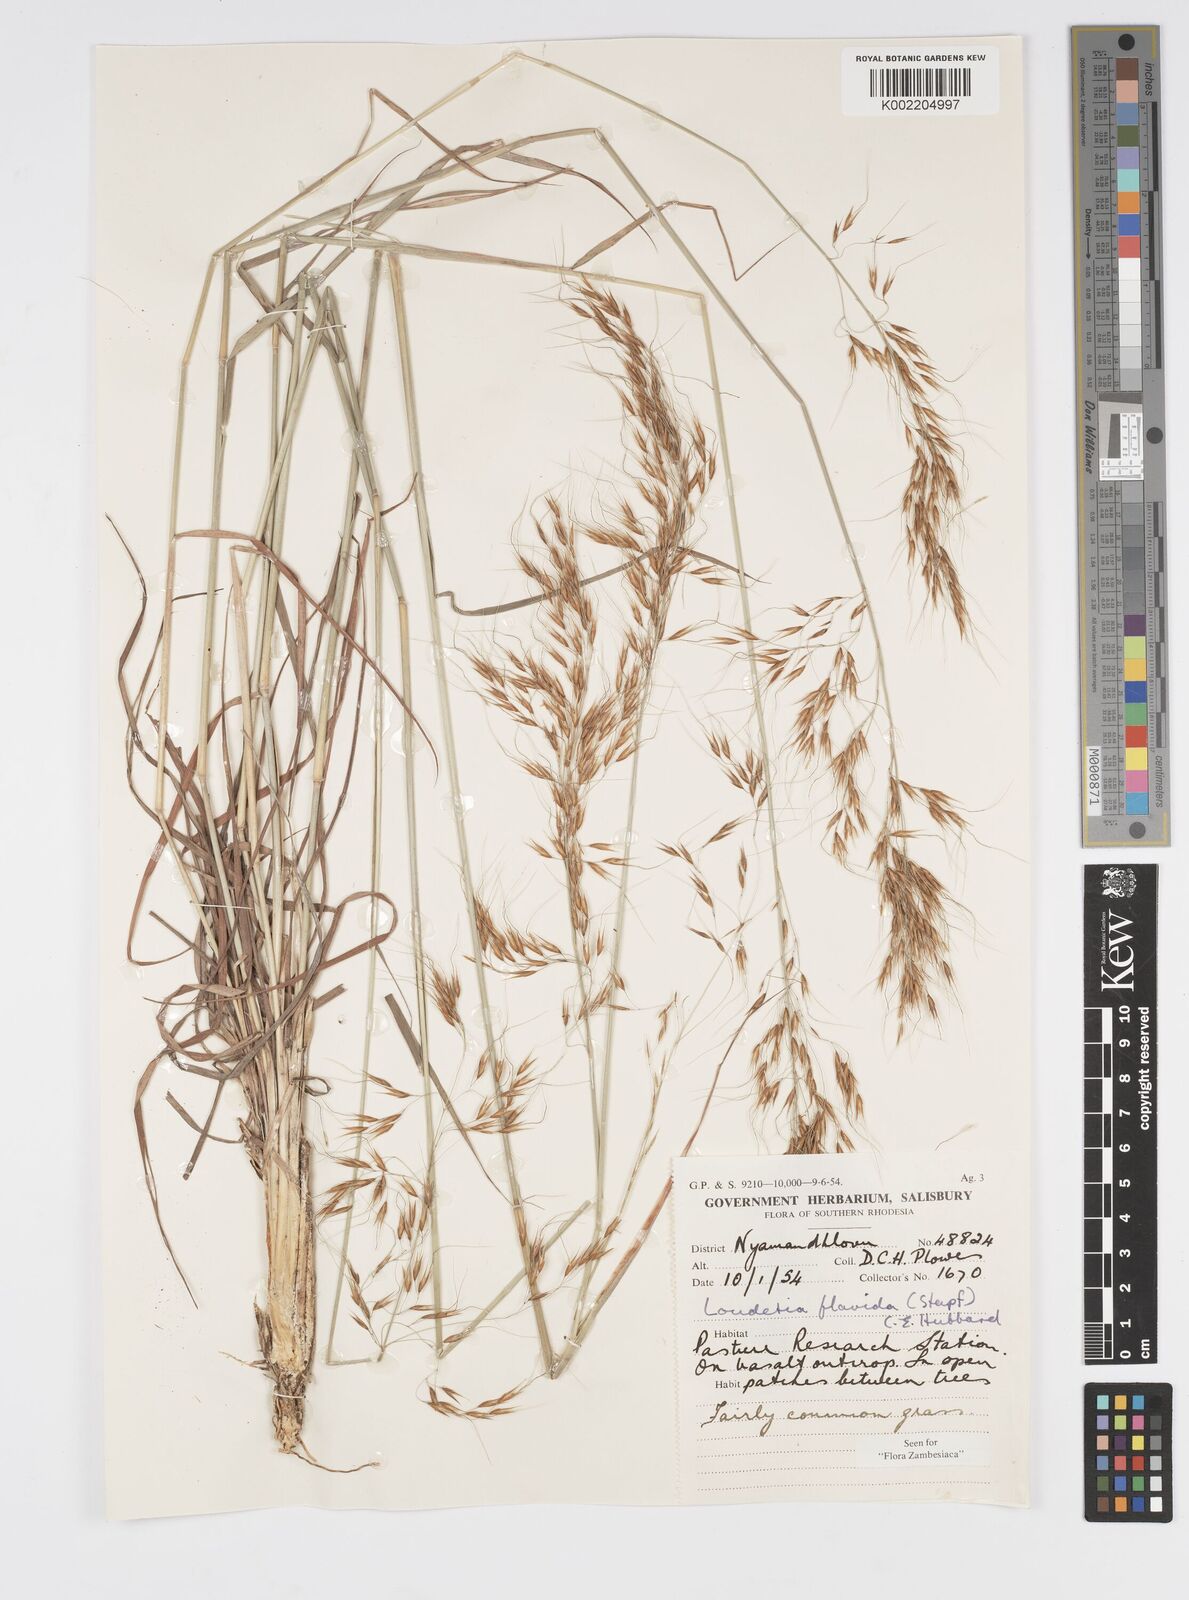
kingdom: Plantae
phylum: Tracheophyta
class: Liliopsida
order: Poales
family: Poaceae
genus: Loudetia
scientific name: Loudetia flavida
